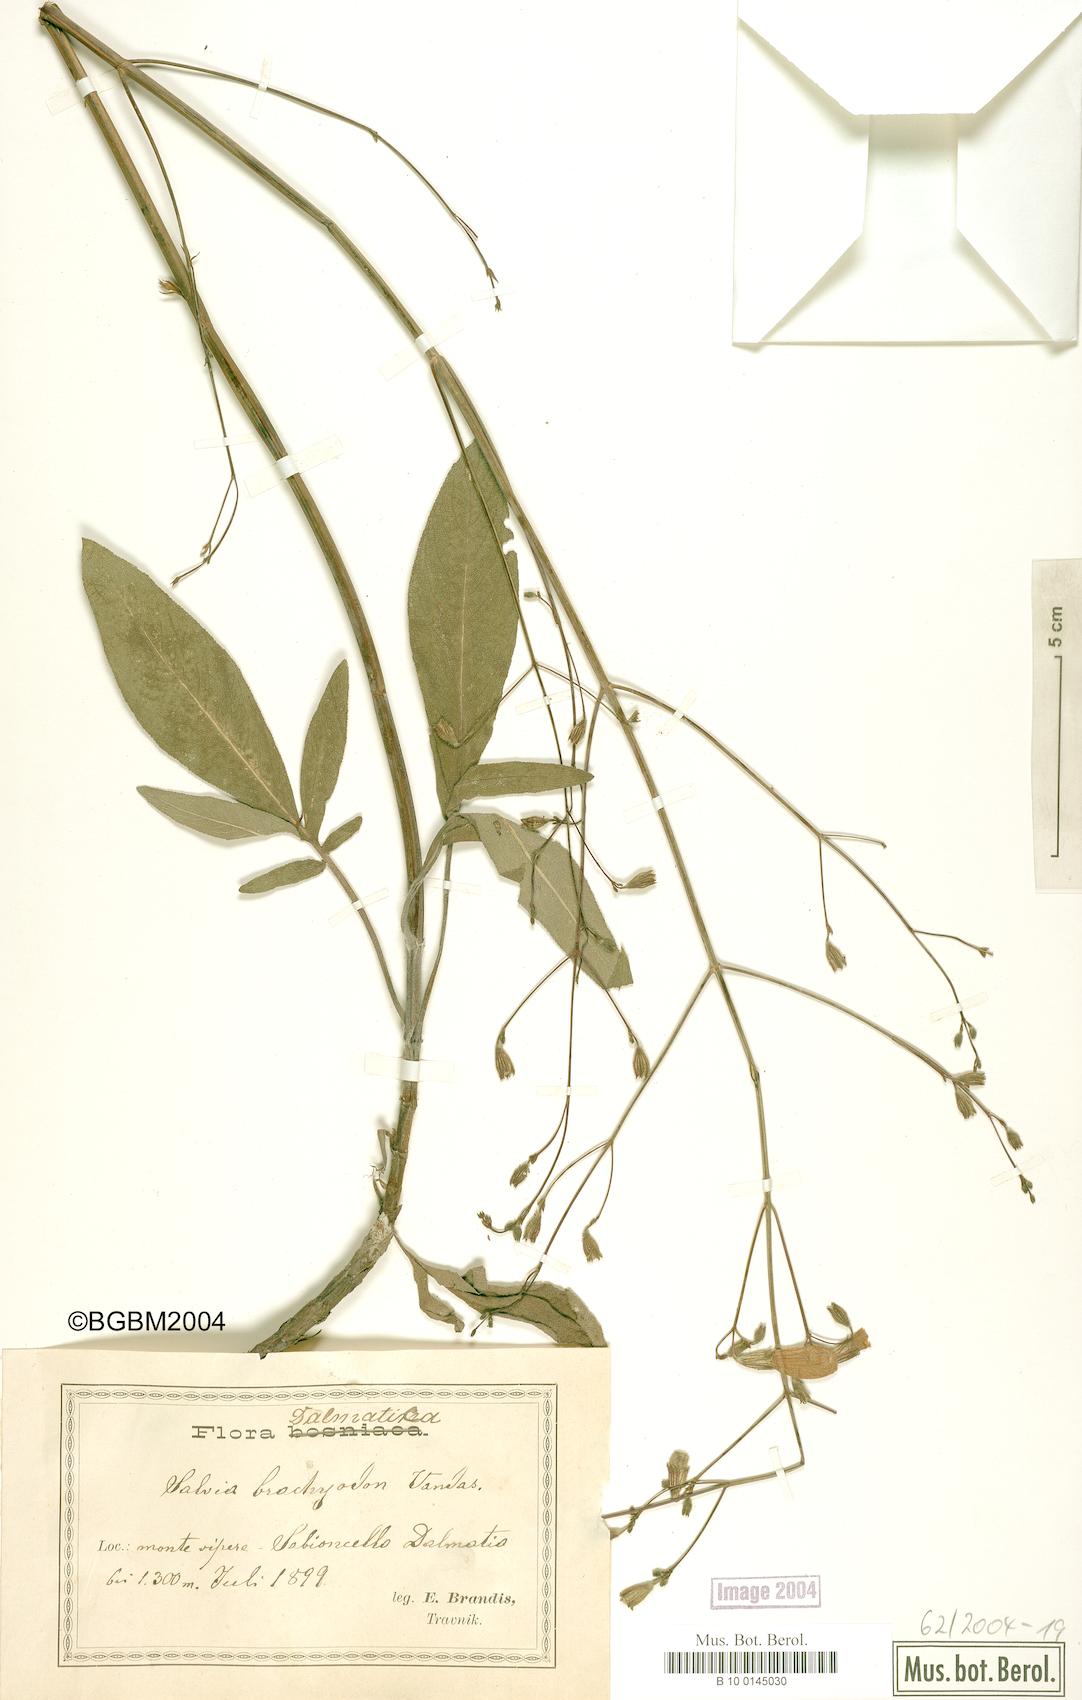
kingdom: Plantae
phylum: Tracheophyta
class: Magnoliopsida
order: Lamiales
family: Lamiaceae
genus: Salvia
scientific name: Salvia brachyodon
